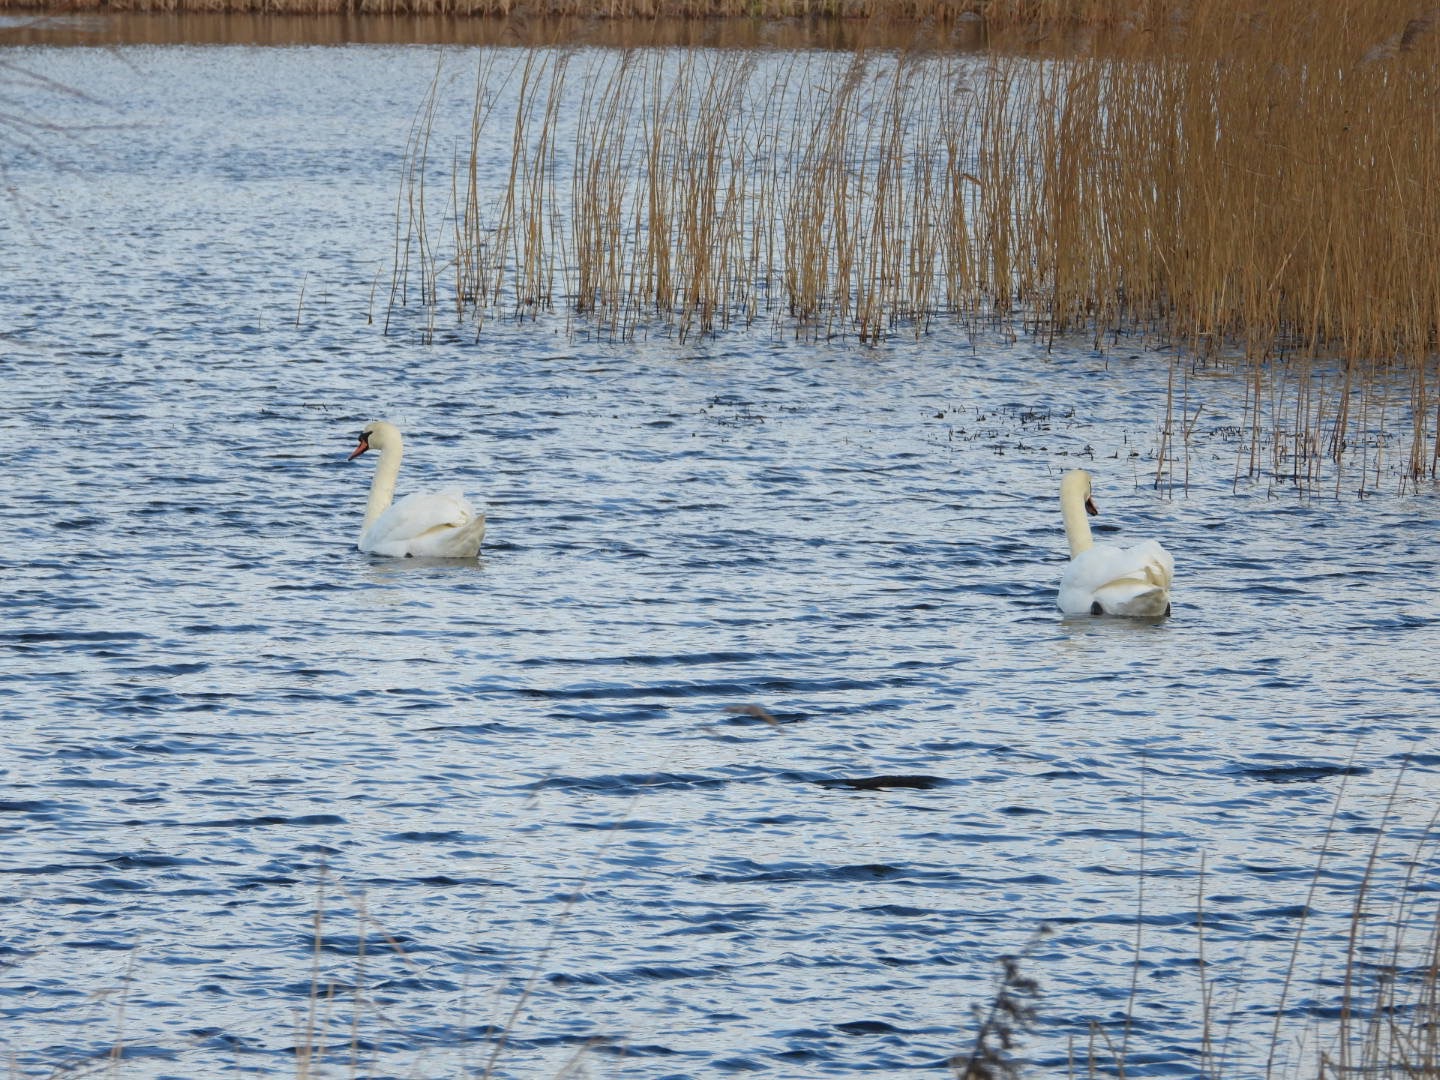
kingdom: Animalia
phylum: Chordata
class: Aves
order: Anseriformes
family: Anatidae
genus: Cygnus
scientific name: Cygnus olor
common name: Knopsvane
